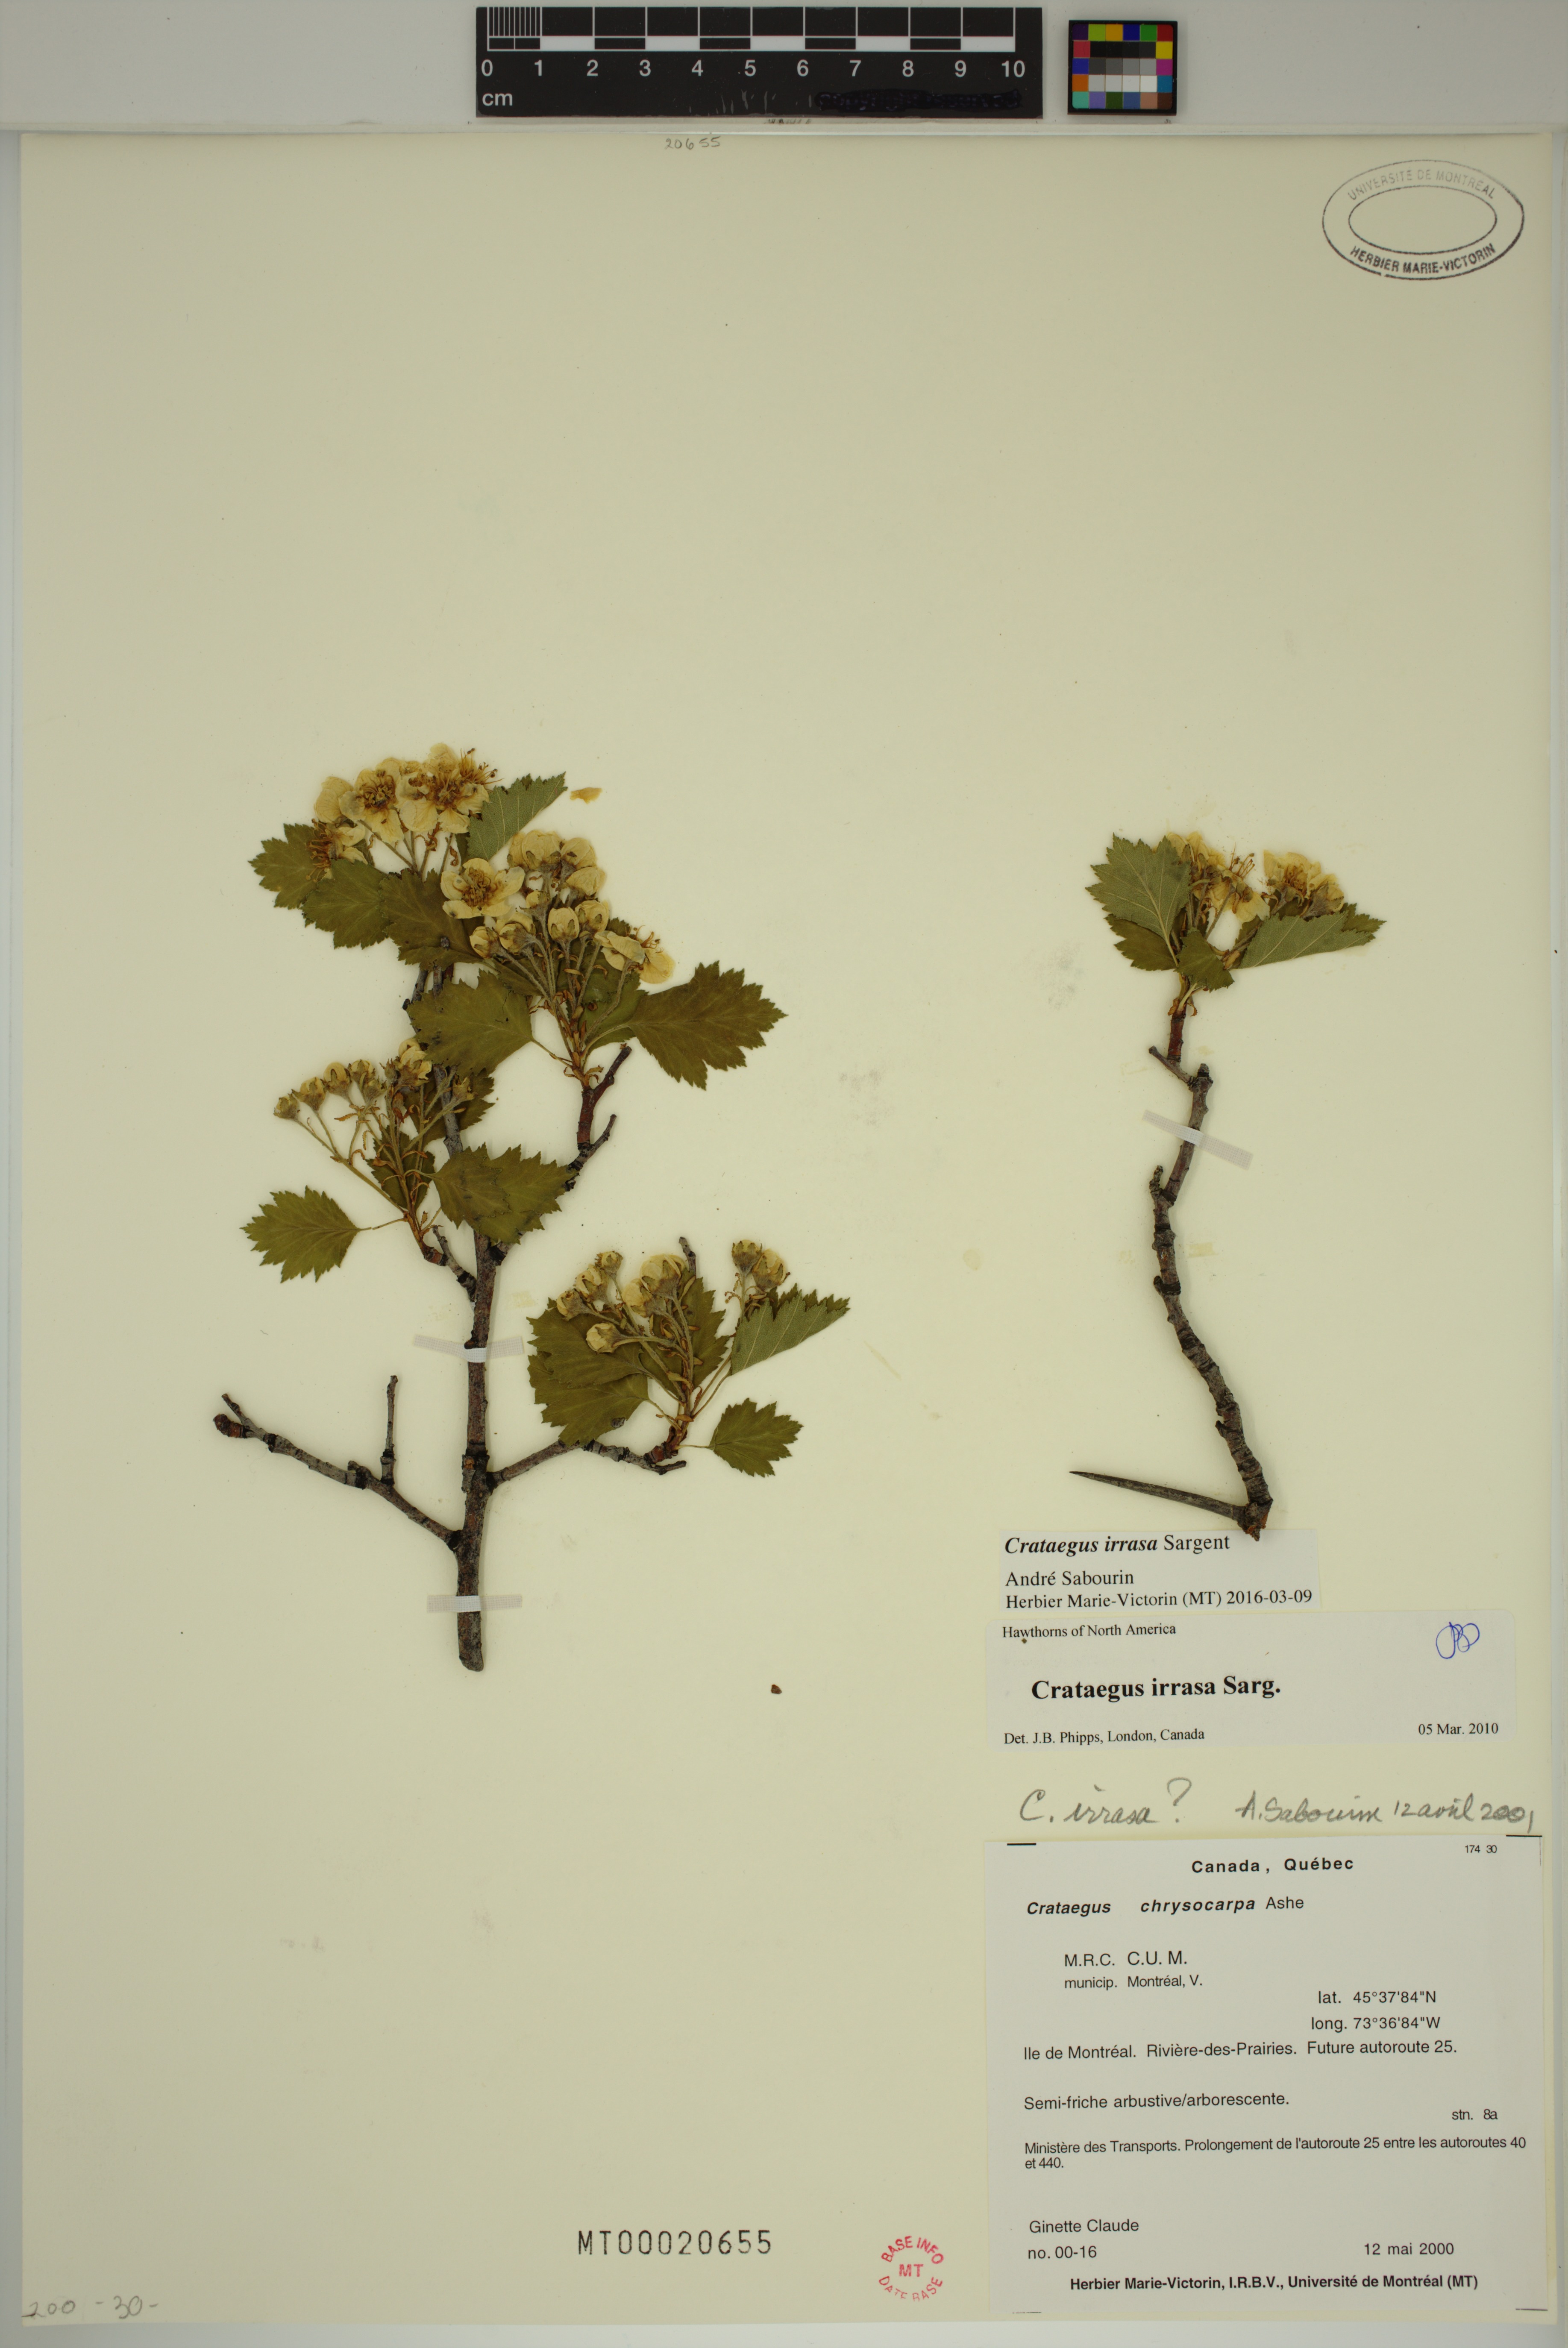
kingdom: Plantae
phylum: Tracheophyta
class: Magnoliopsida
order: Rosales
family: Rosaceae
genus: Crataegus
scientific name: Crataegus irrasa
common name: Unshorn hawthorn
